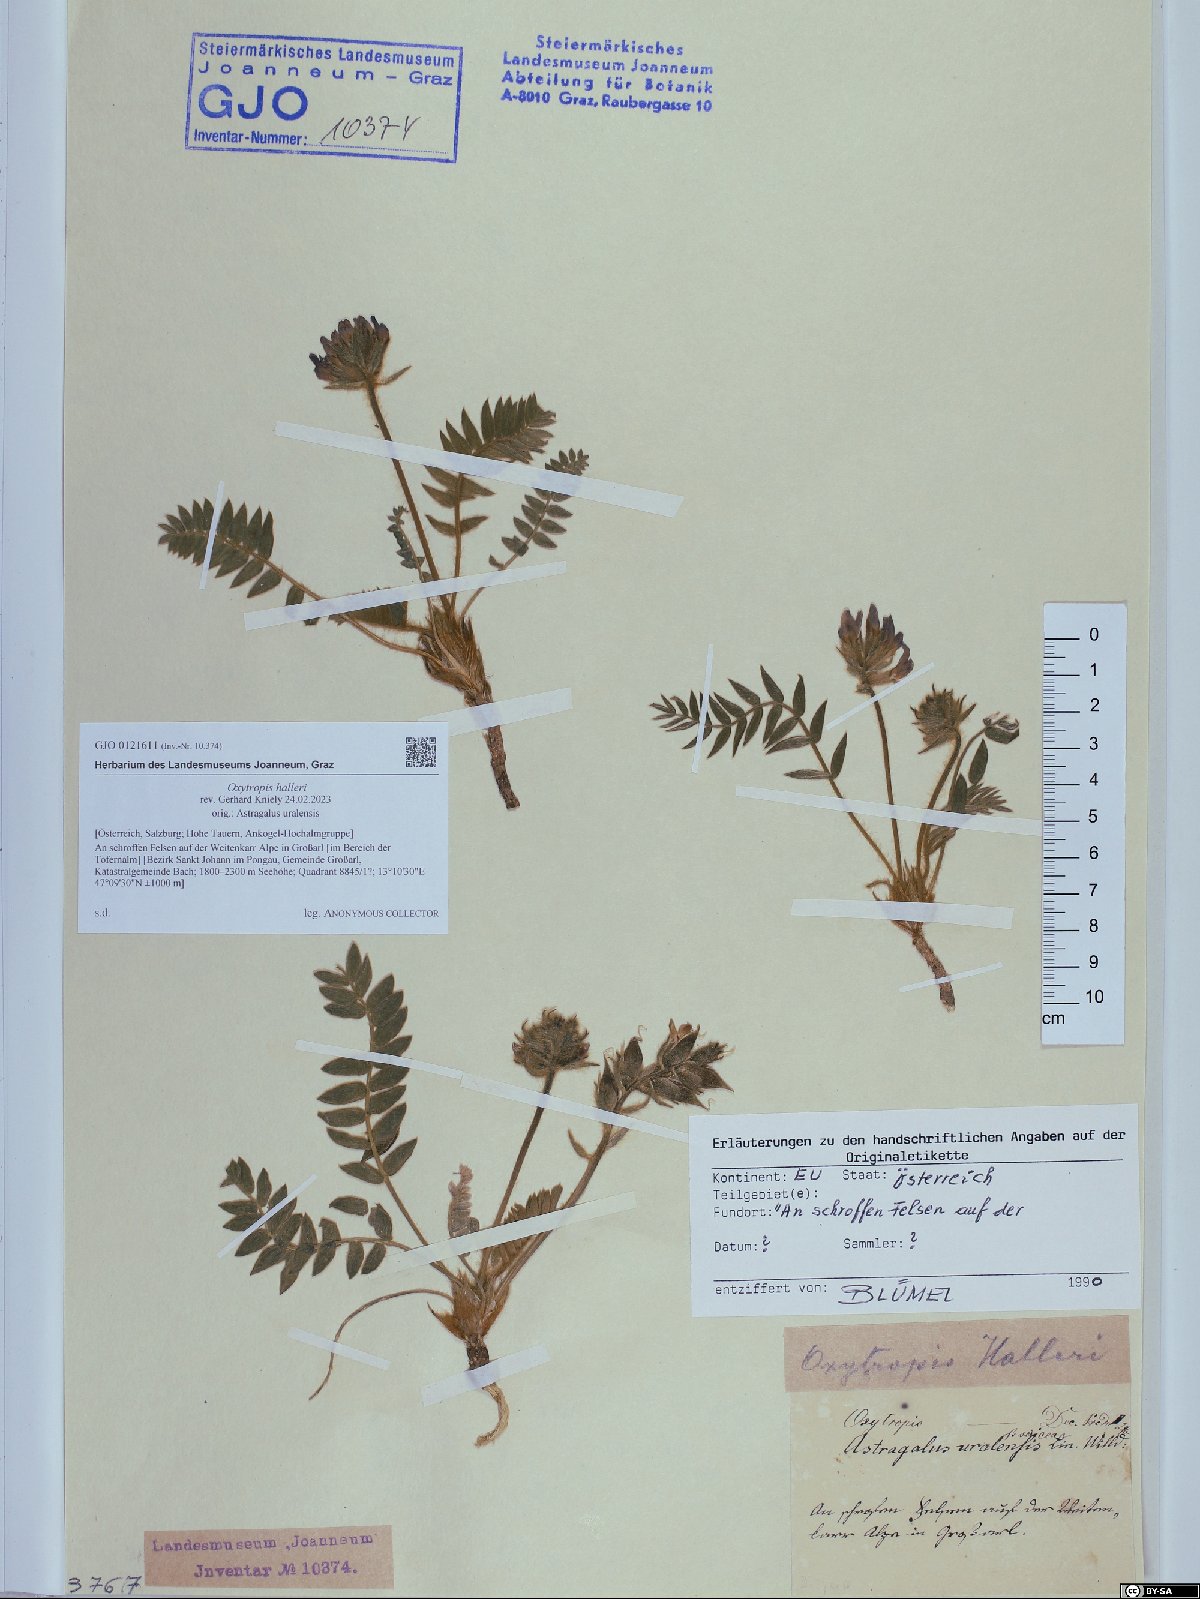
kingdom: Plantae
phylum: Tracheophyta
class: Magnoliopsida
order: Fabales
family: Fabaceae
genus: Oxytropis
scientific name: Oxytropis halleri
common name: Purple oxytropis
